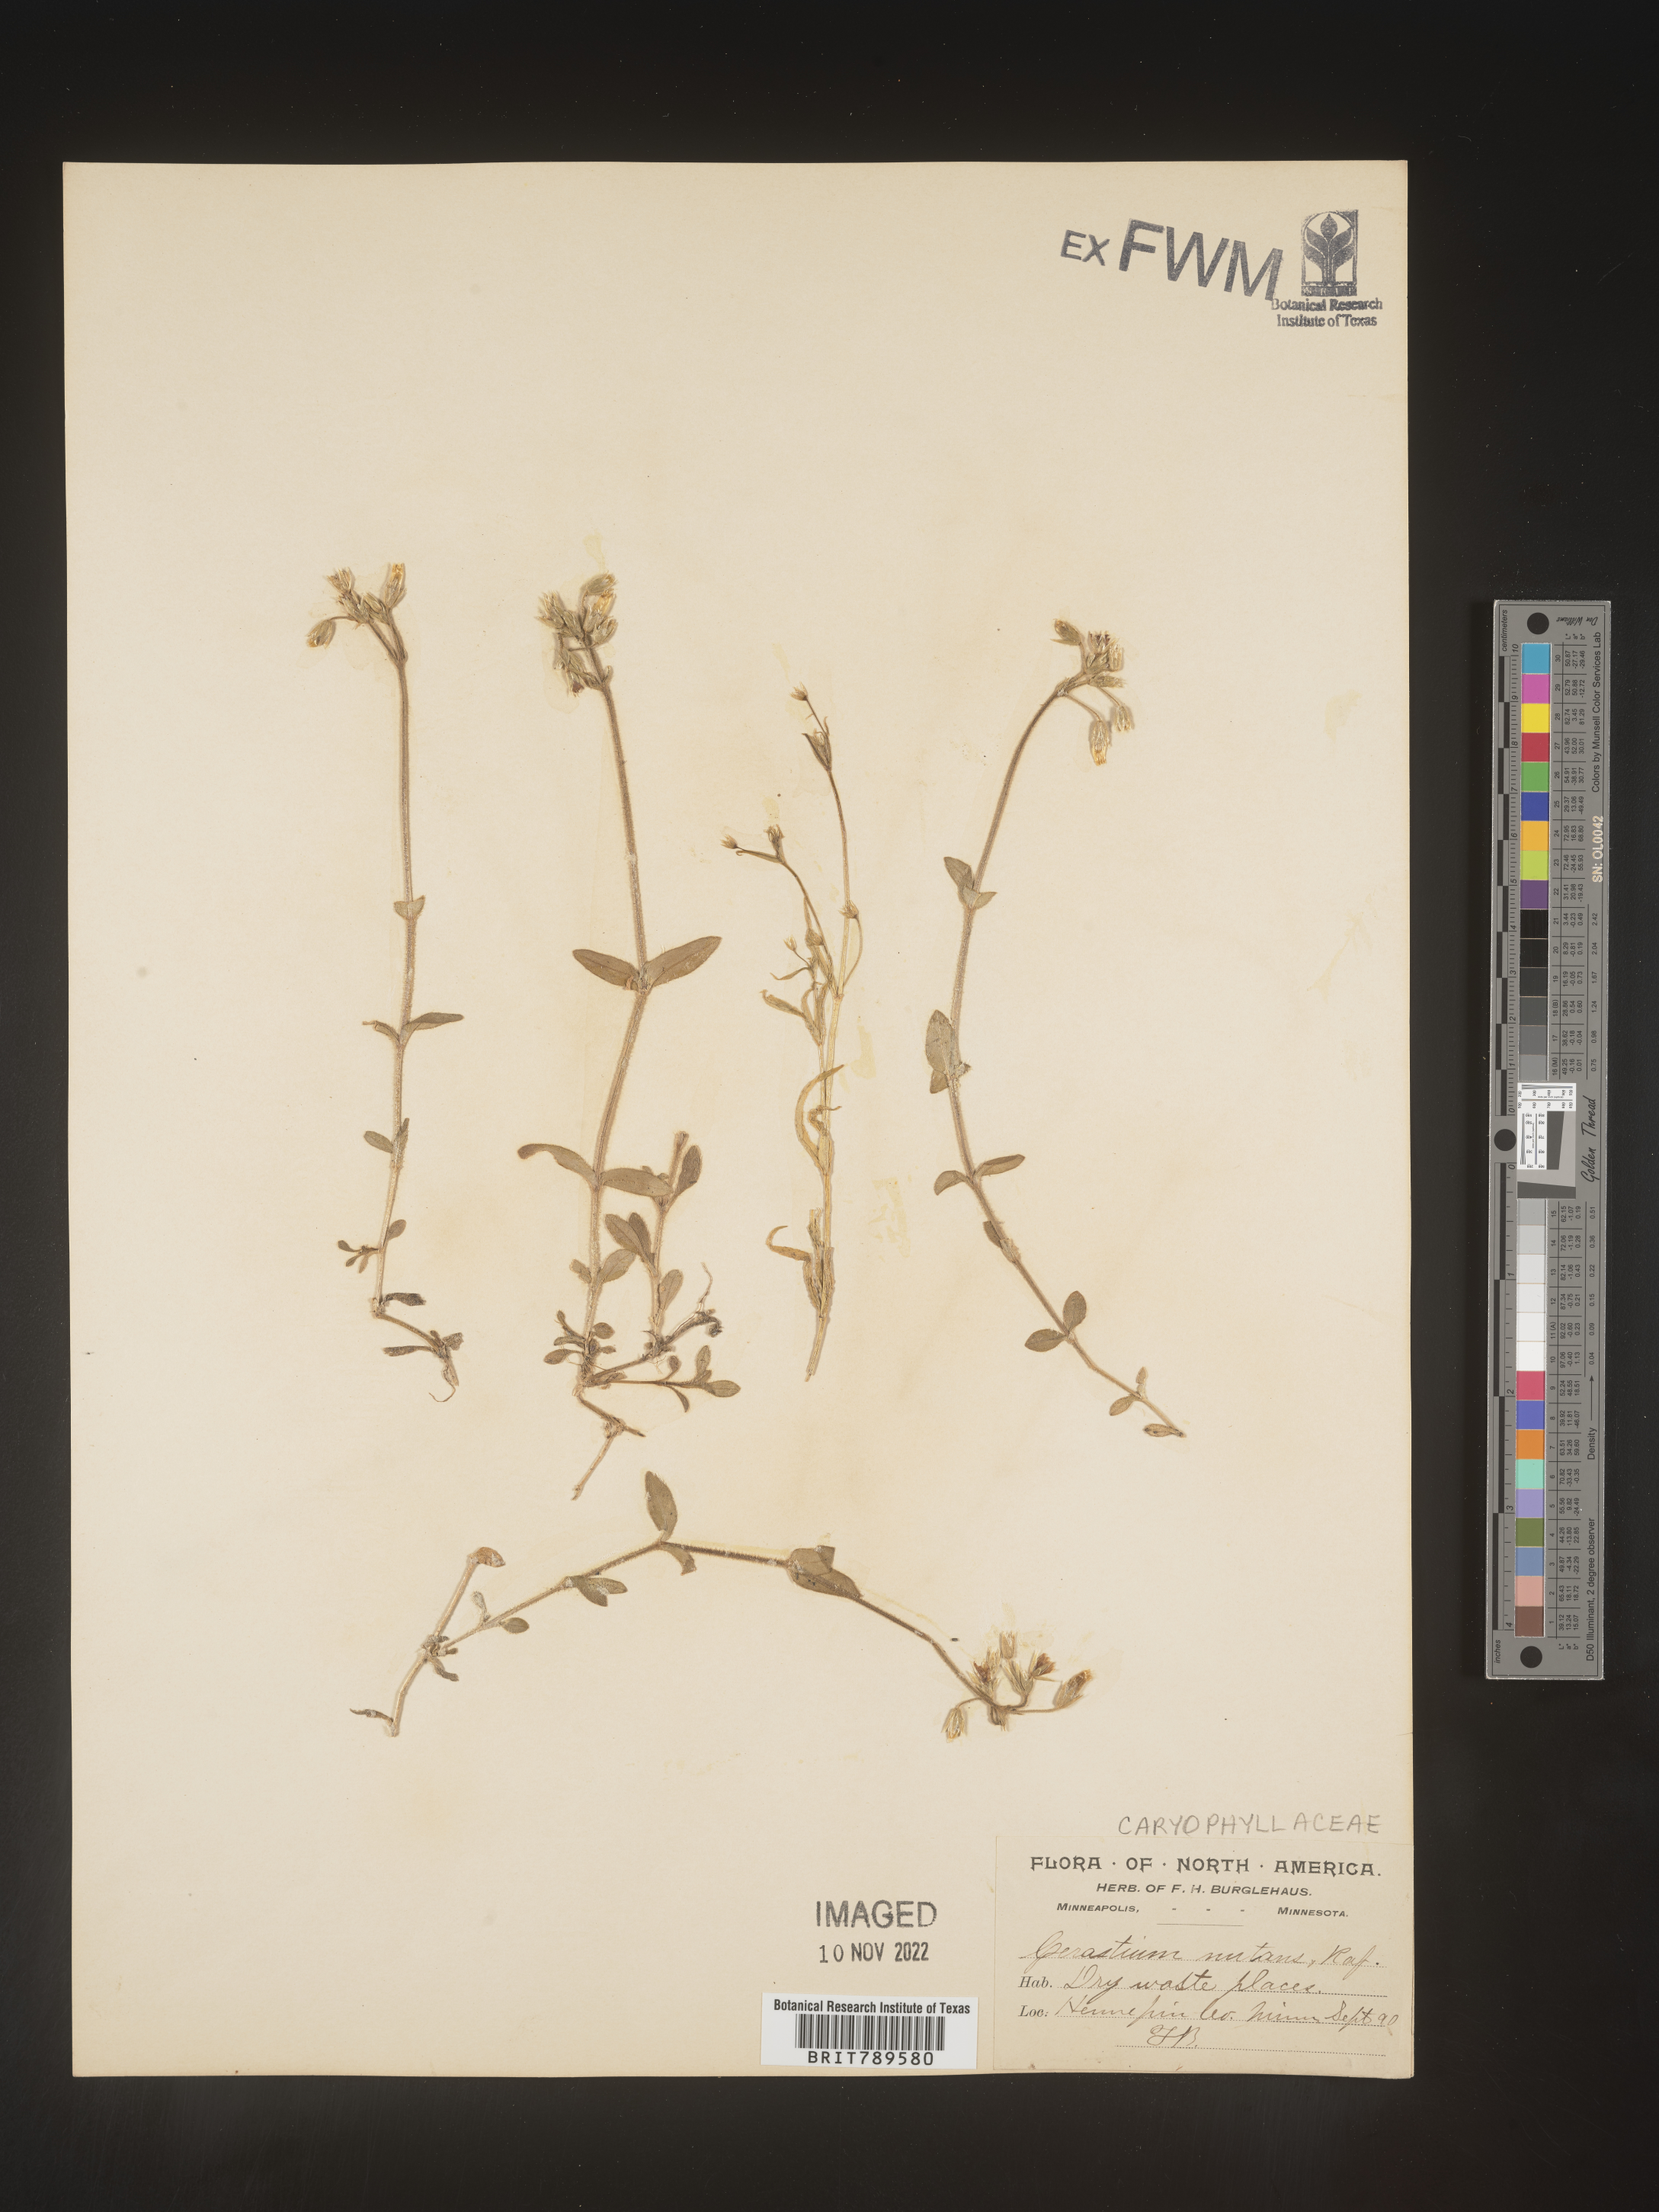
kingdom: Plantae
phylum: Tracheophyta
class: Magnoliopsida
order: Caryophyllales
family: Caryophyllaceae
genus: Cerastium
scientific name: Cerastium nutans
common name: Long-stalked chickweed
